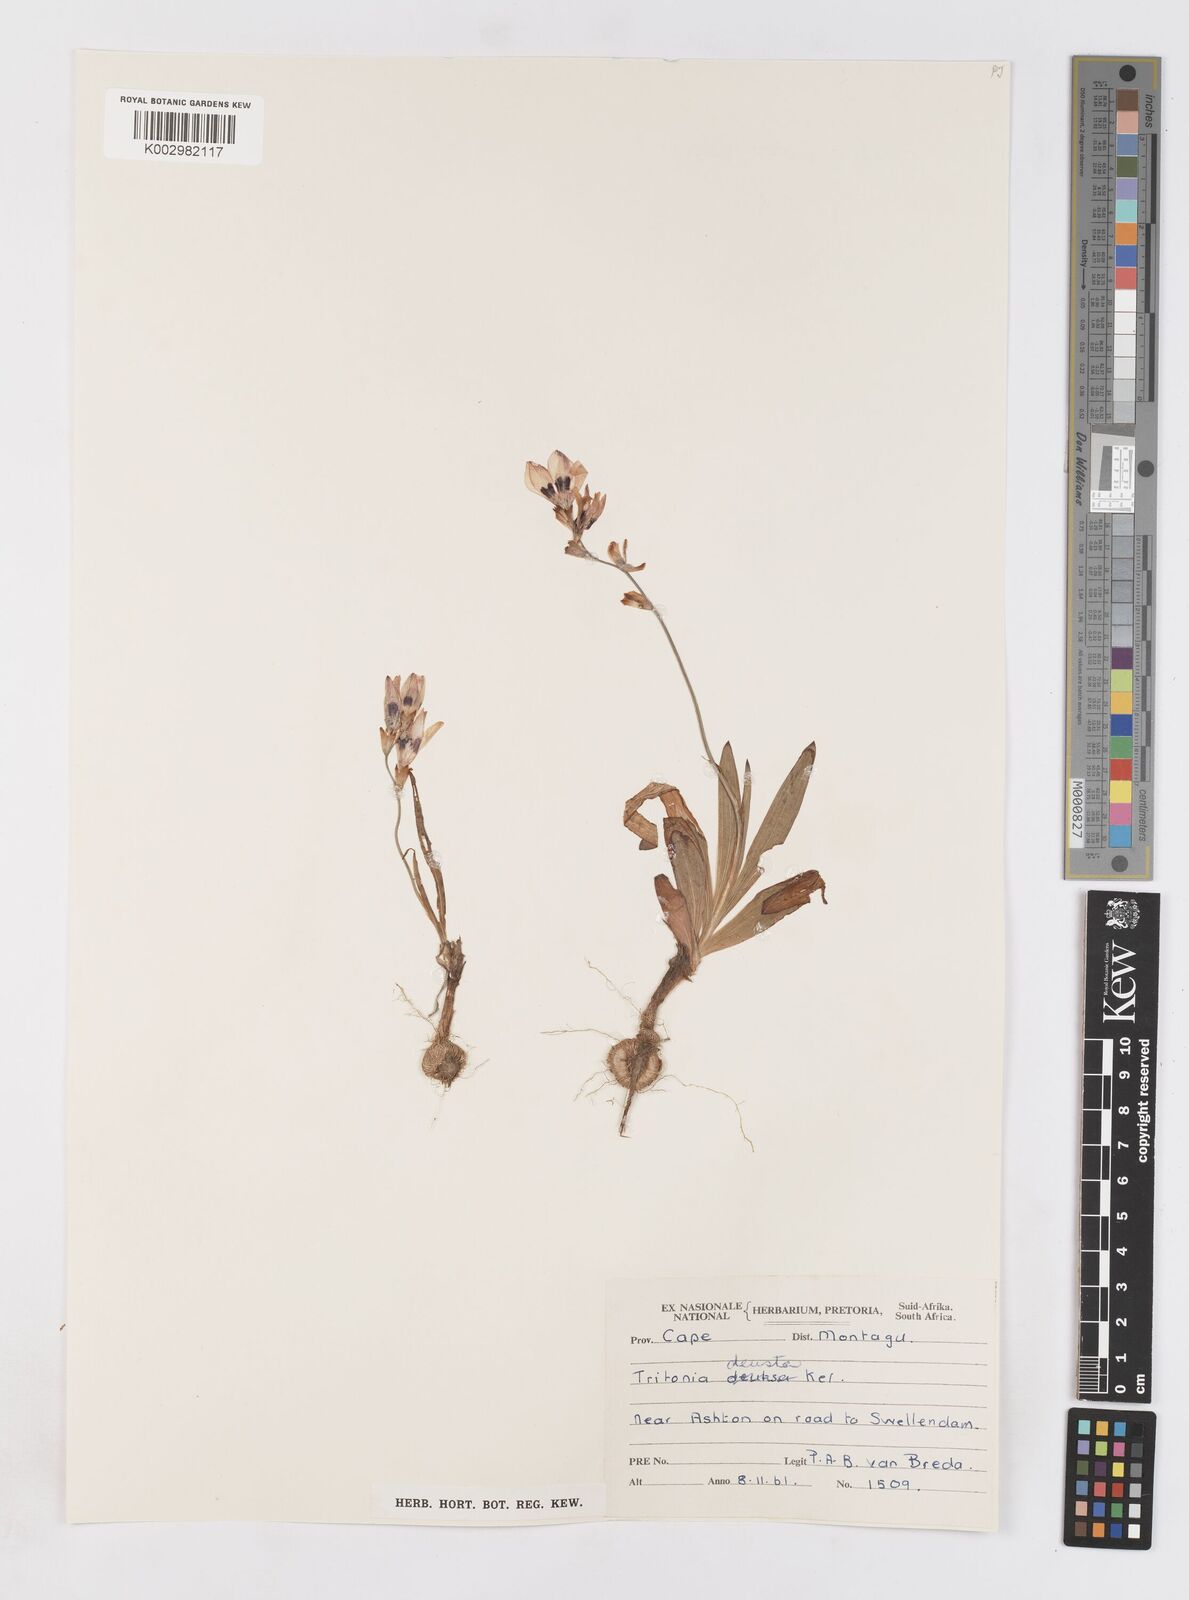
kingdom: Plantae
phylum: Tracheophyta
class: Liliopsida
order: Asparagales
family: Iridaceae
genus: Tritonia
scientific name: Tritonia deusta
